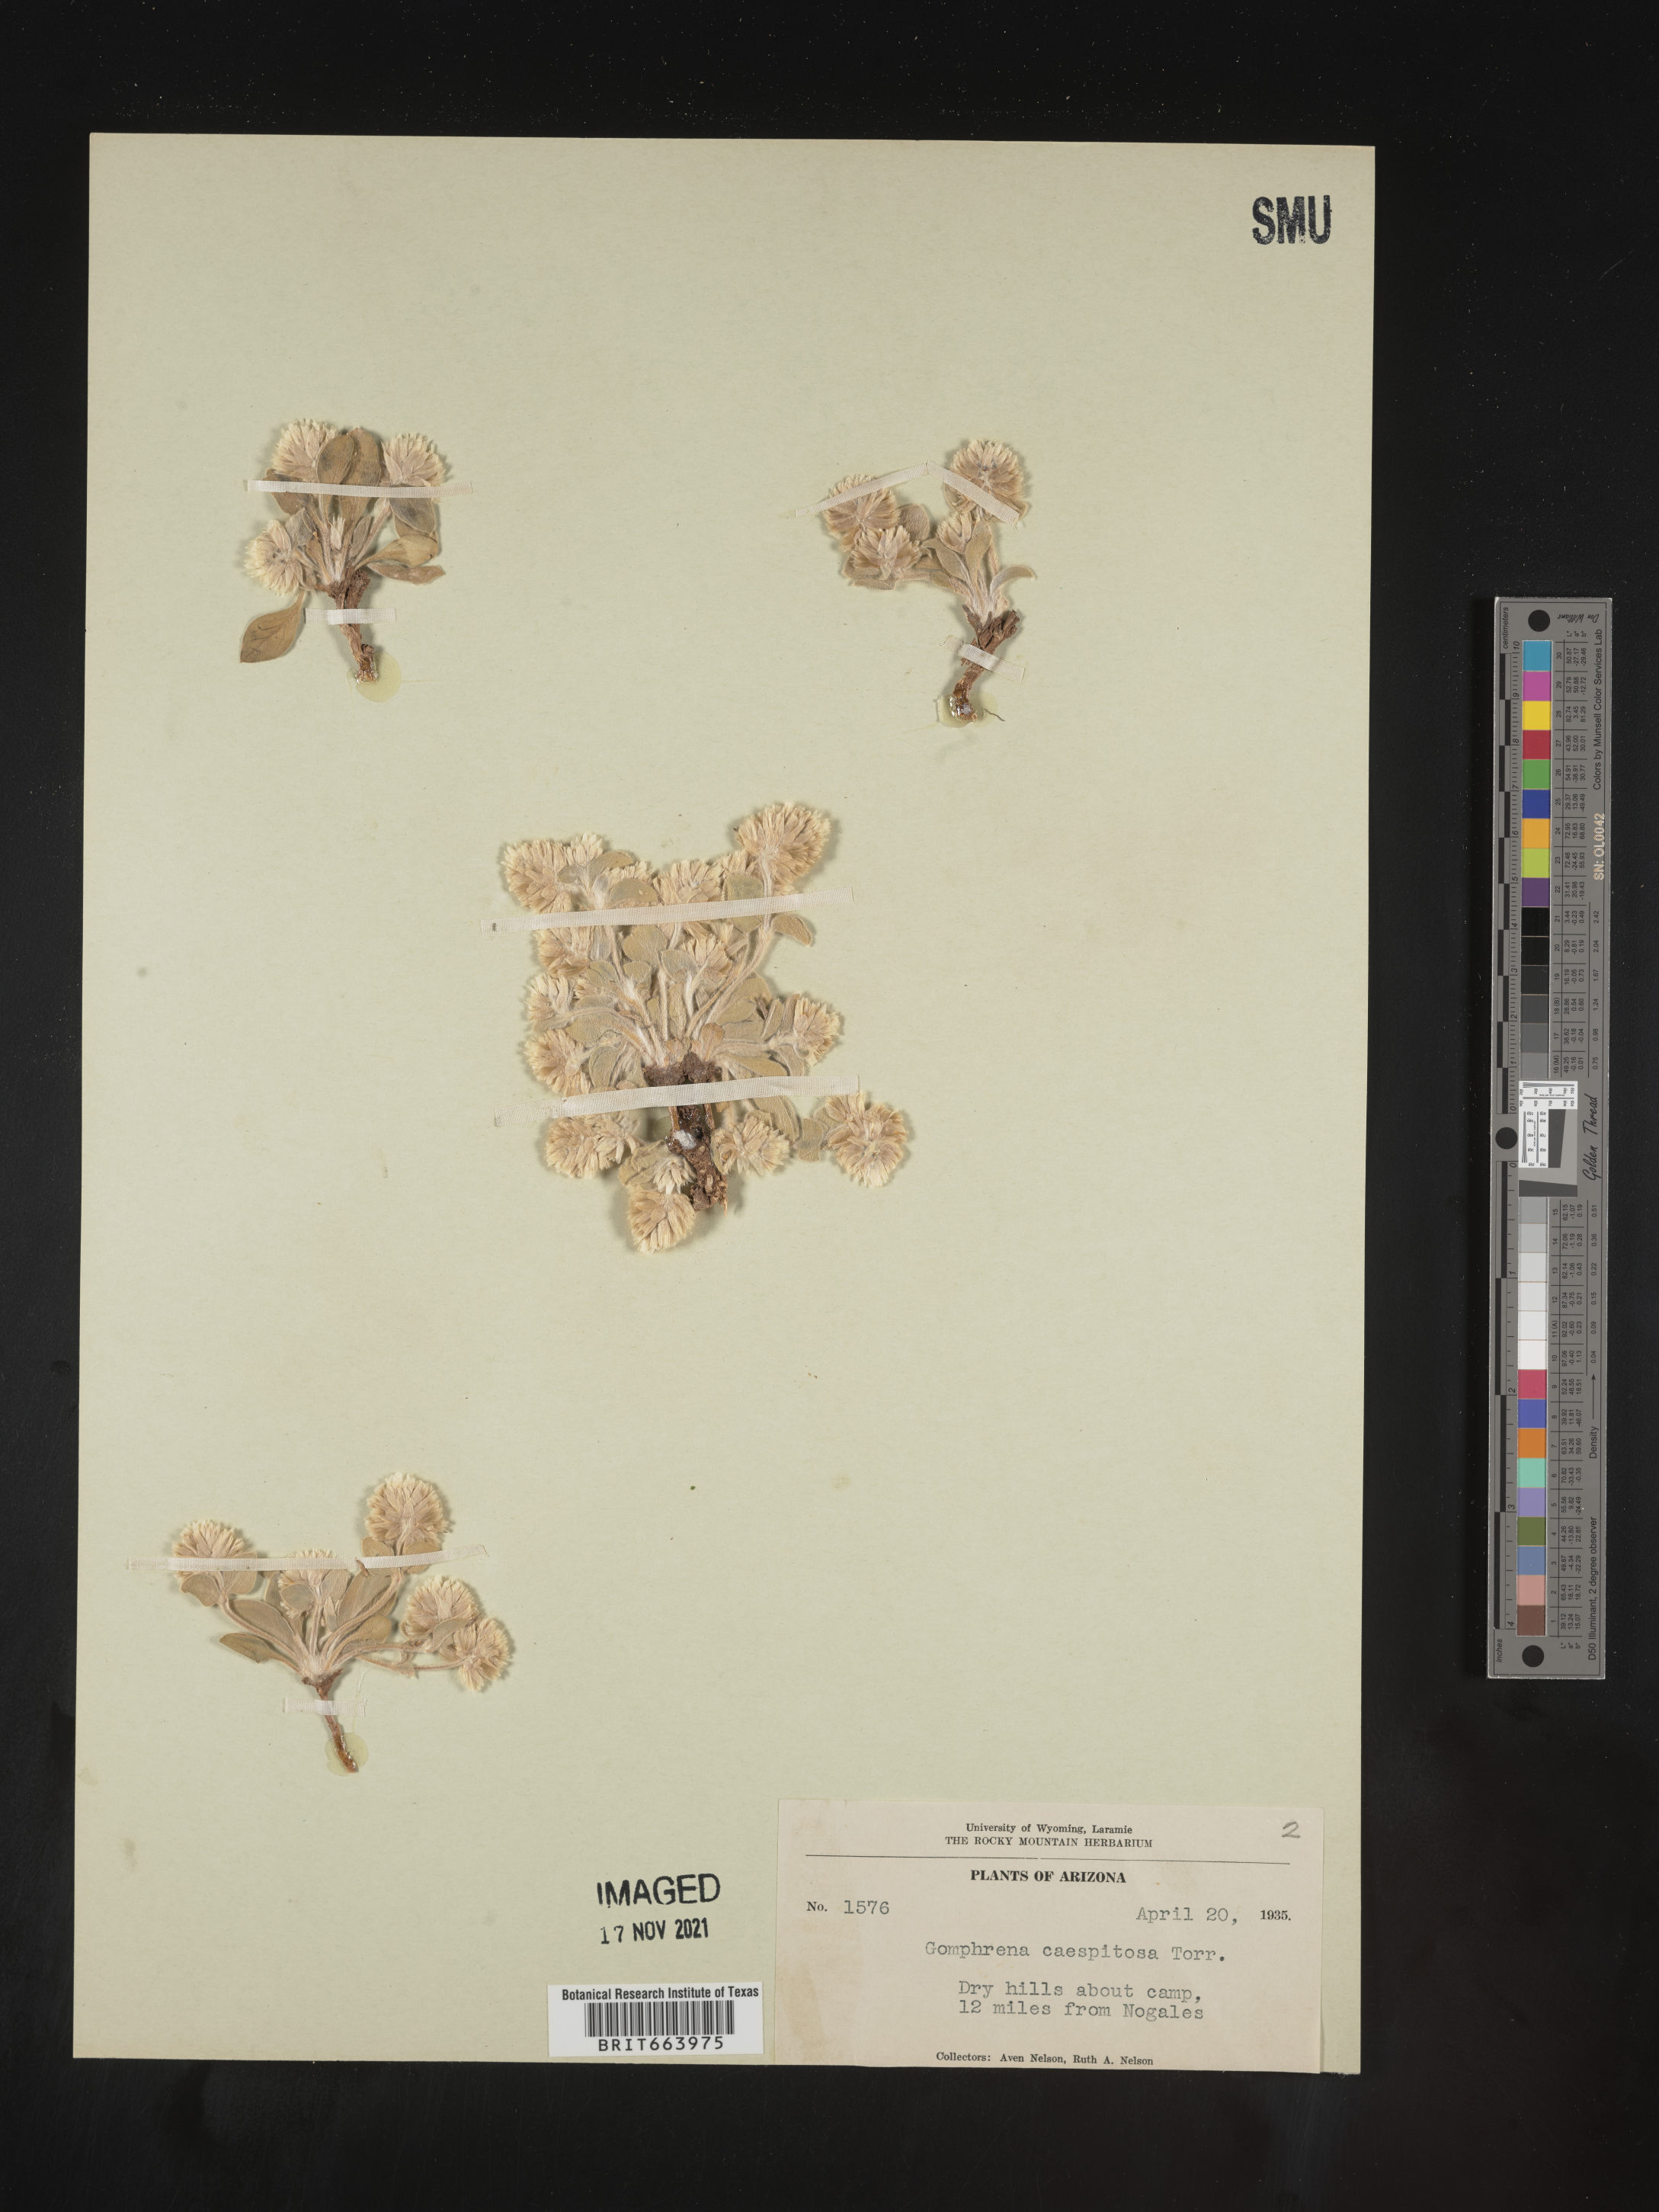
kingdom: Plantae
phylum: Tracheophyta
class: Magnoliopsida
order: Caryophyllales
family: Amaranthaceae
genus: Gomphrena
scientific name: Gomphrena
